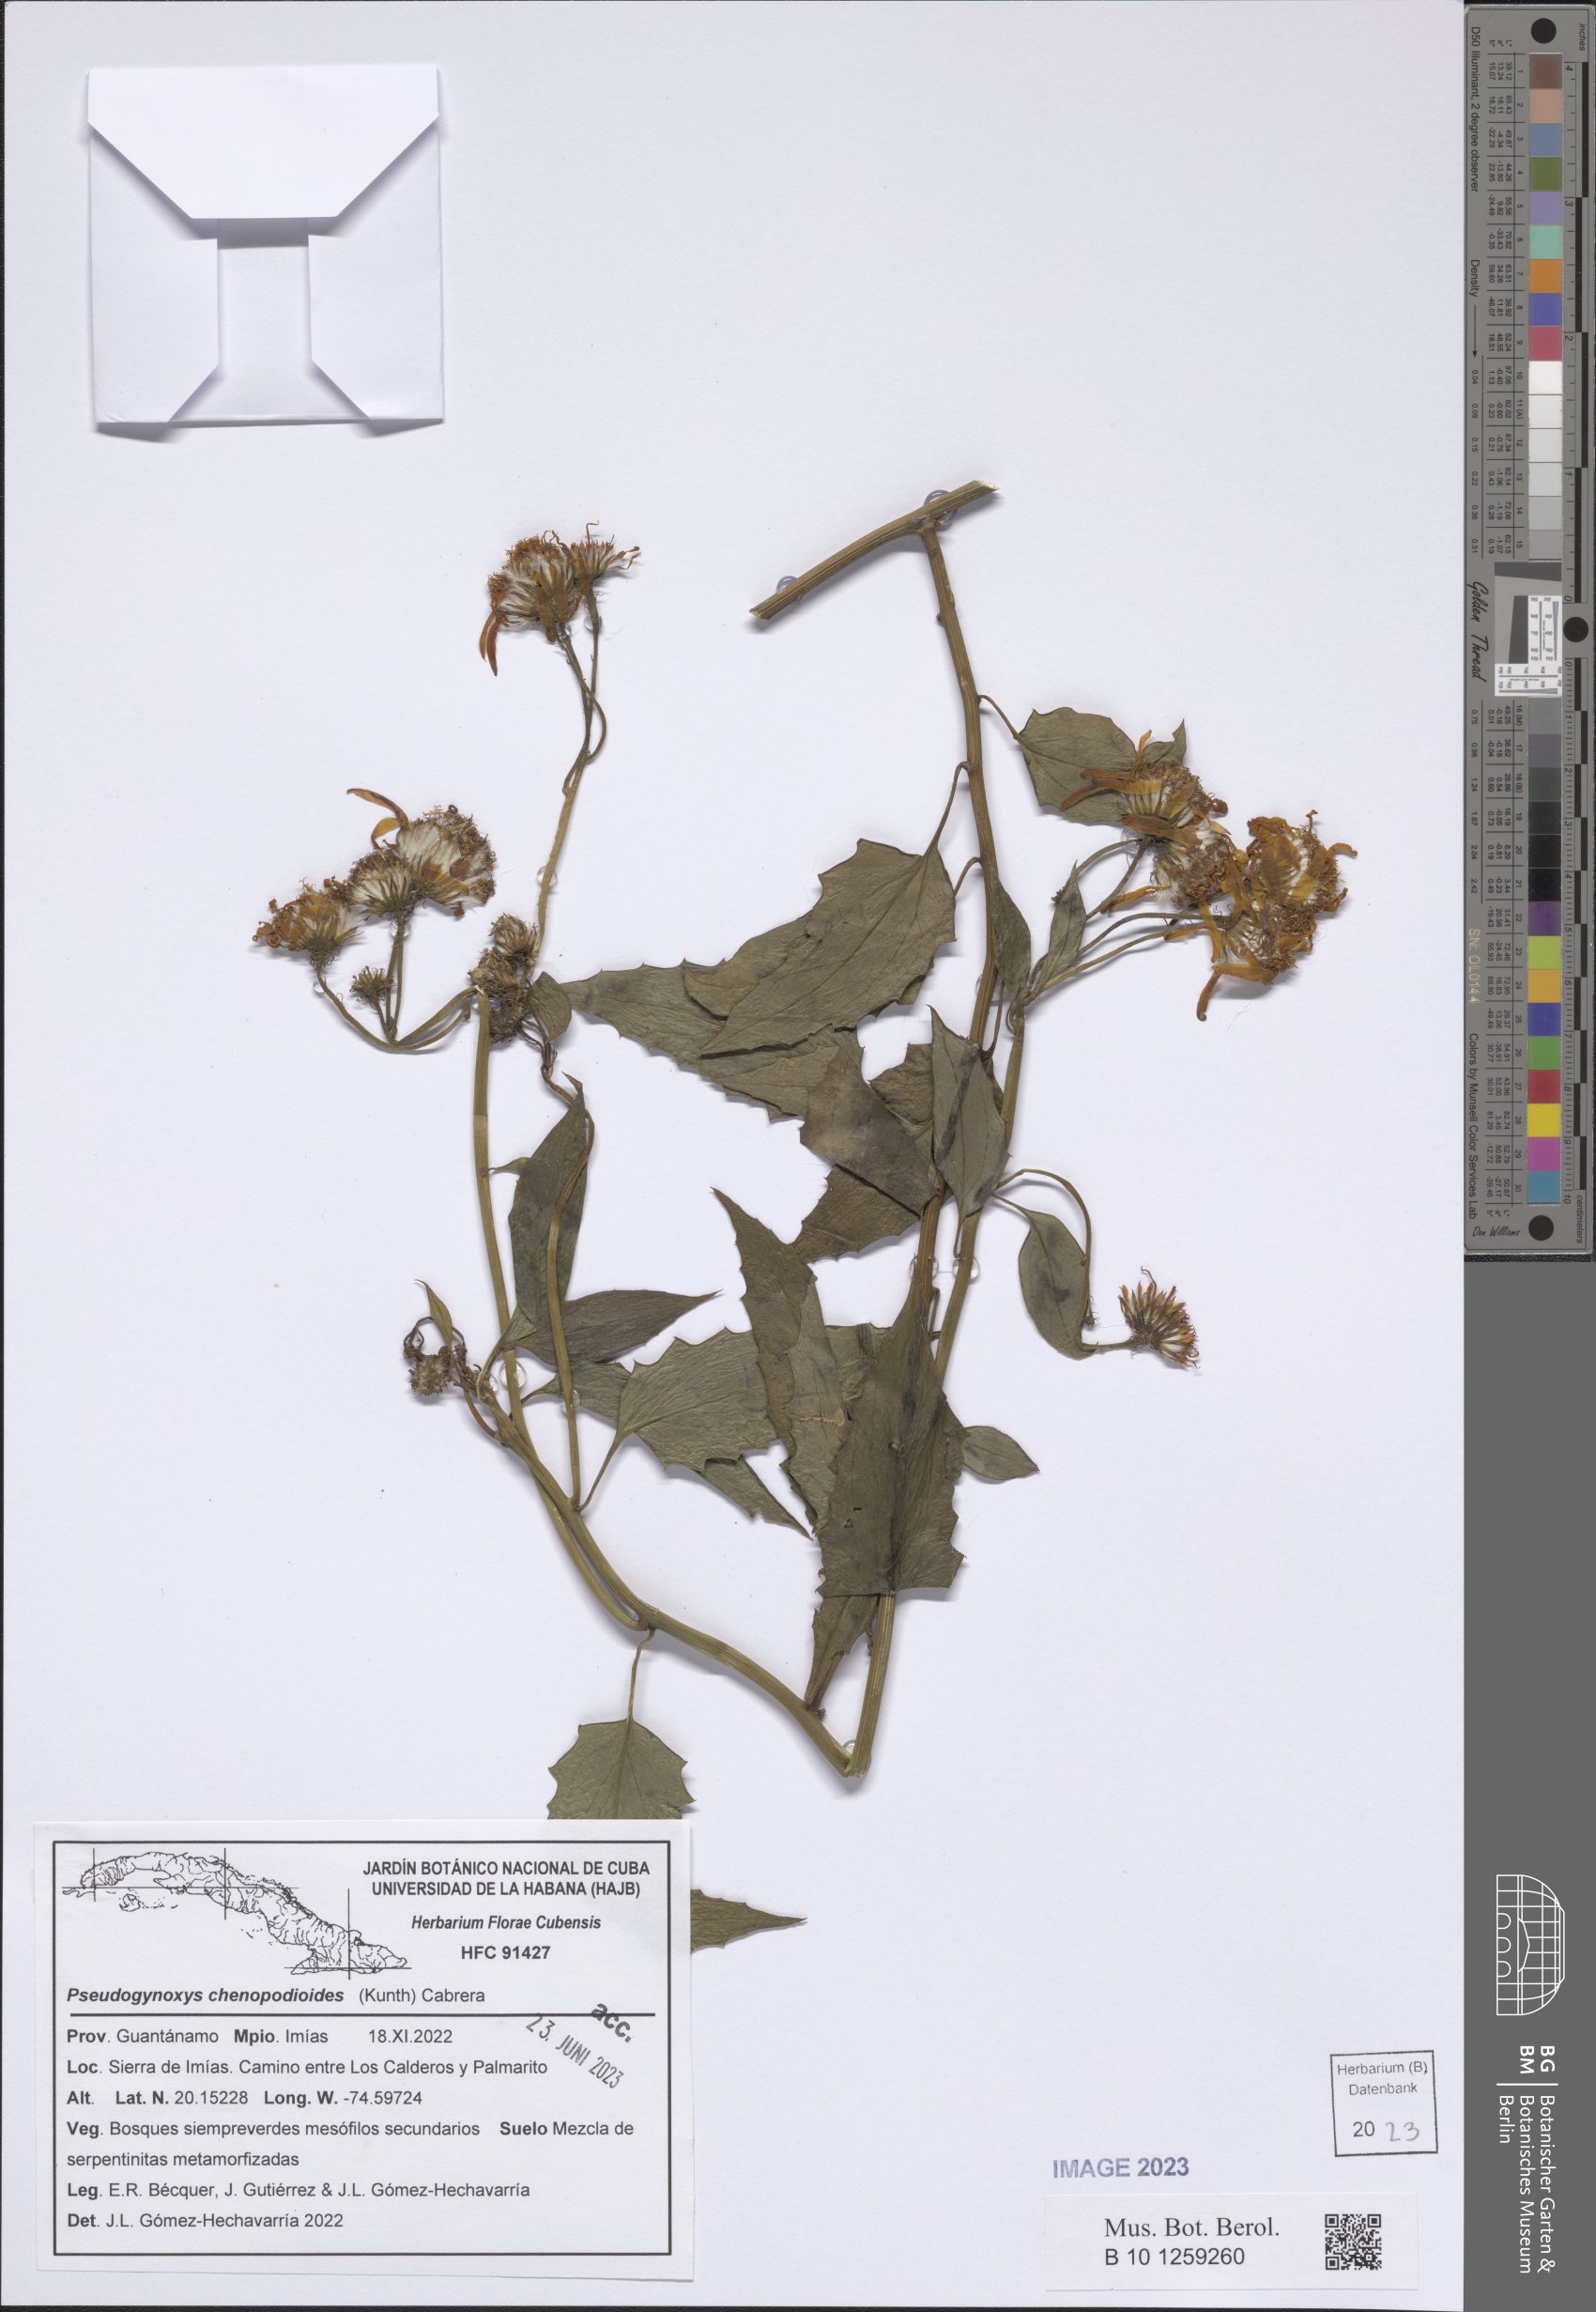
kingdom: Plantae
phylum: Tracheophyta
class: Magnoliopsida
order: Asterales
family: Asteraceae
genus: Pseudogynoxys
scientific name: Pseudogynoxys chenopodioides
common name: Mexican flamevine
